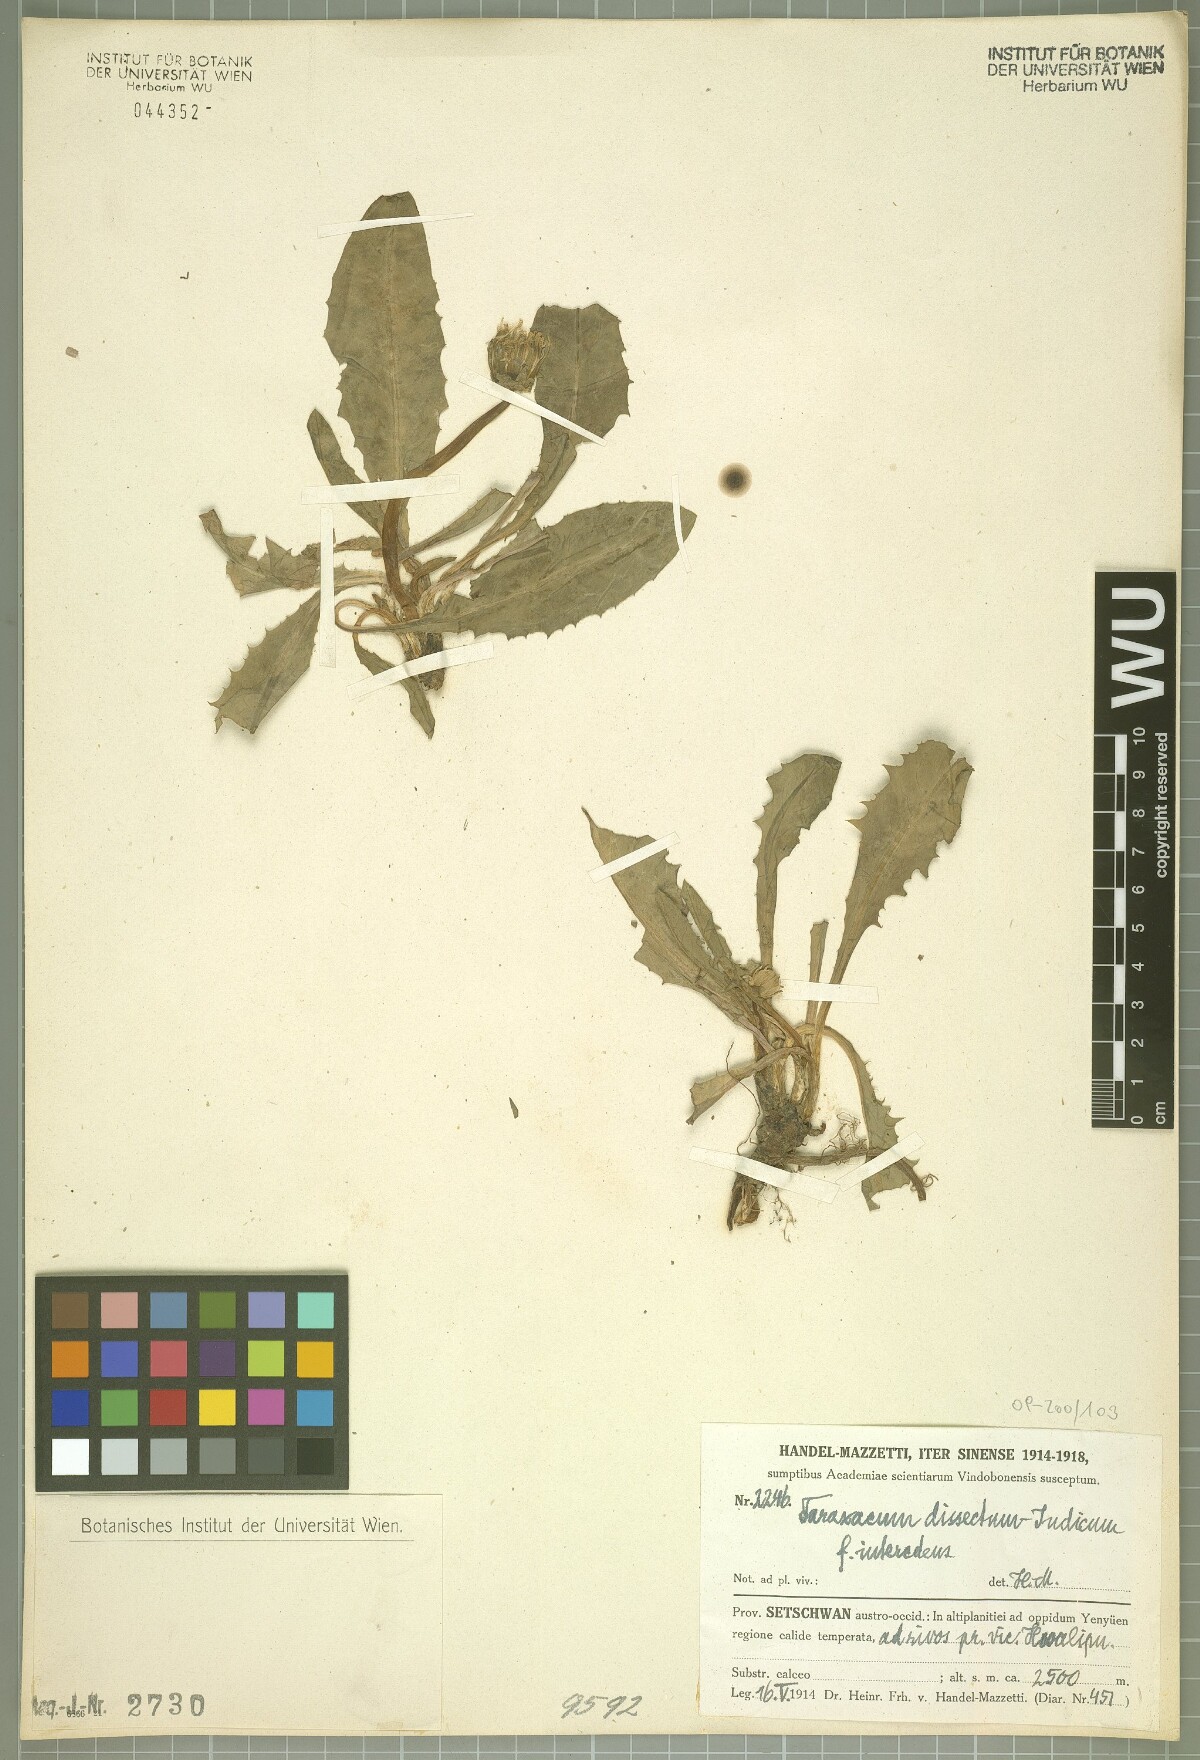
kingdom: Plantae
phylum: Tracheophyta
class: Magnoliopsida
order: Asterales
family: Asteraceae
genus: Taraxacum
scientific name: Taraxacum dissectum
